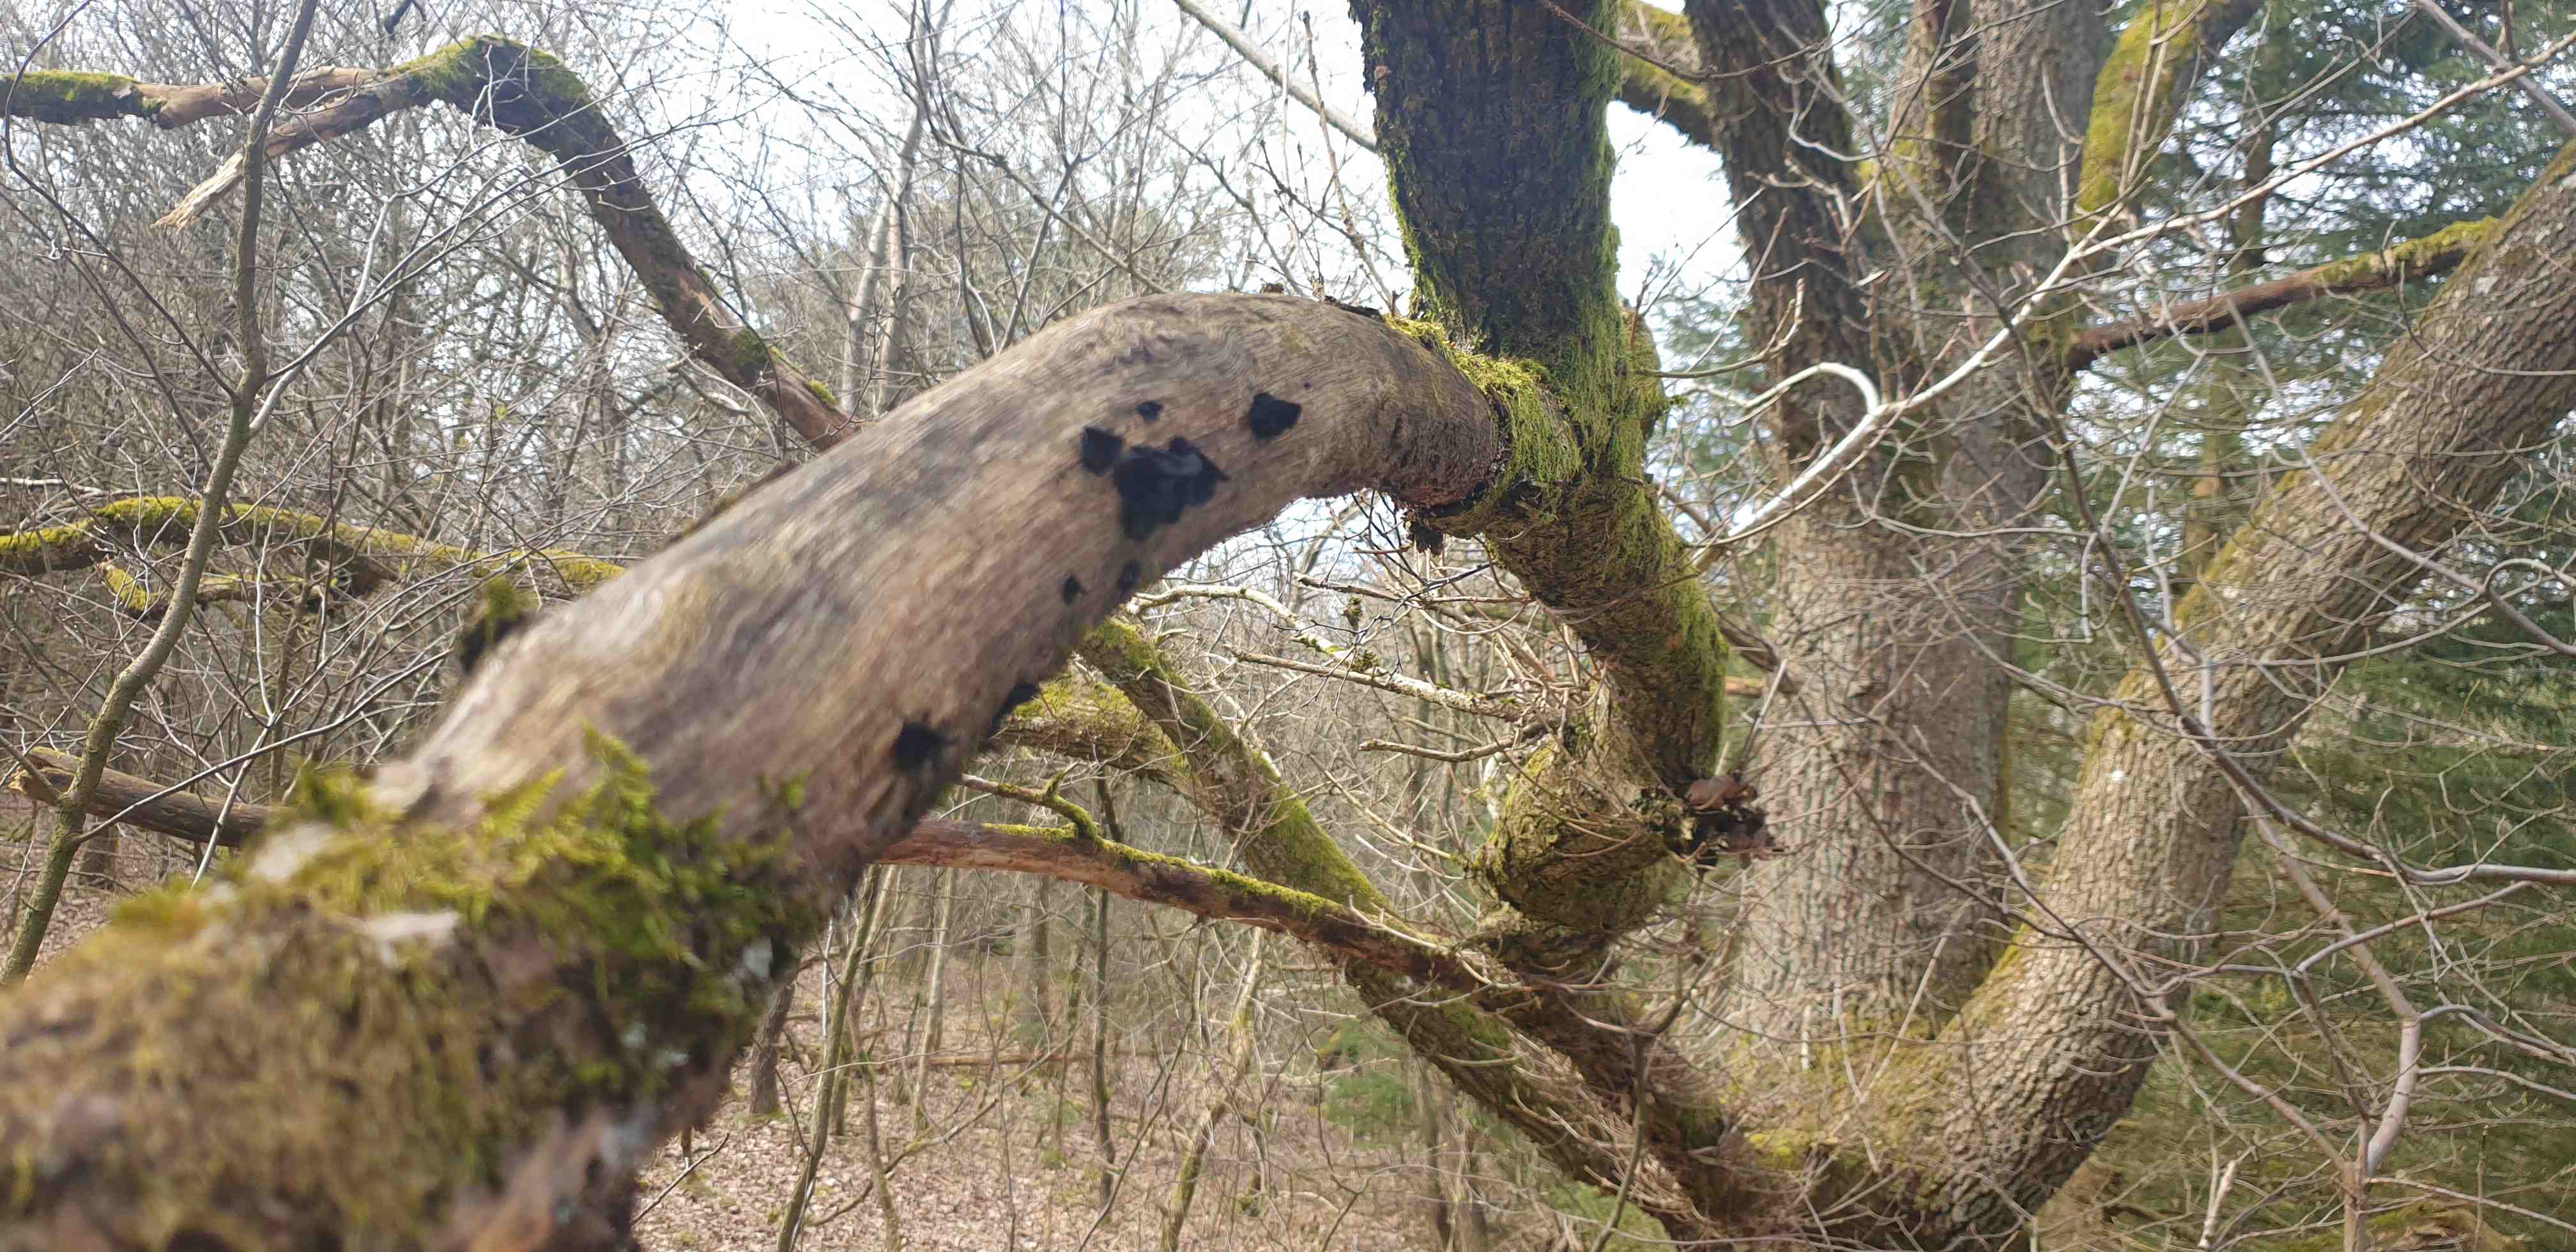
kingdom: Fungi
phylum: Basidiomycota
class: Agaricomycetes
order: Auriculariales
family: Auriculariaceae
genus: Exidia
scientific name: Exidia glandulosa
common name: ege-bævretop
